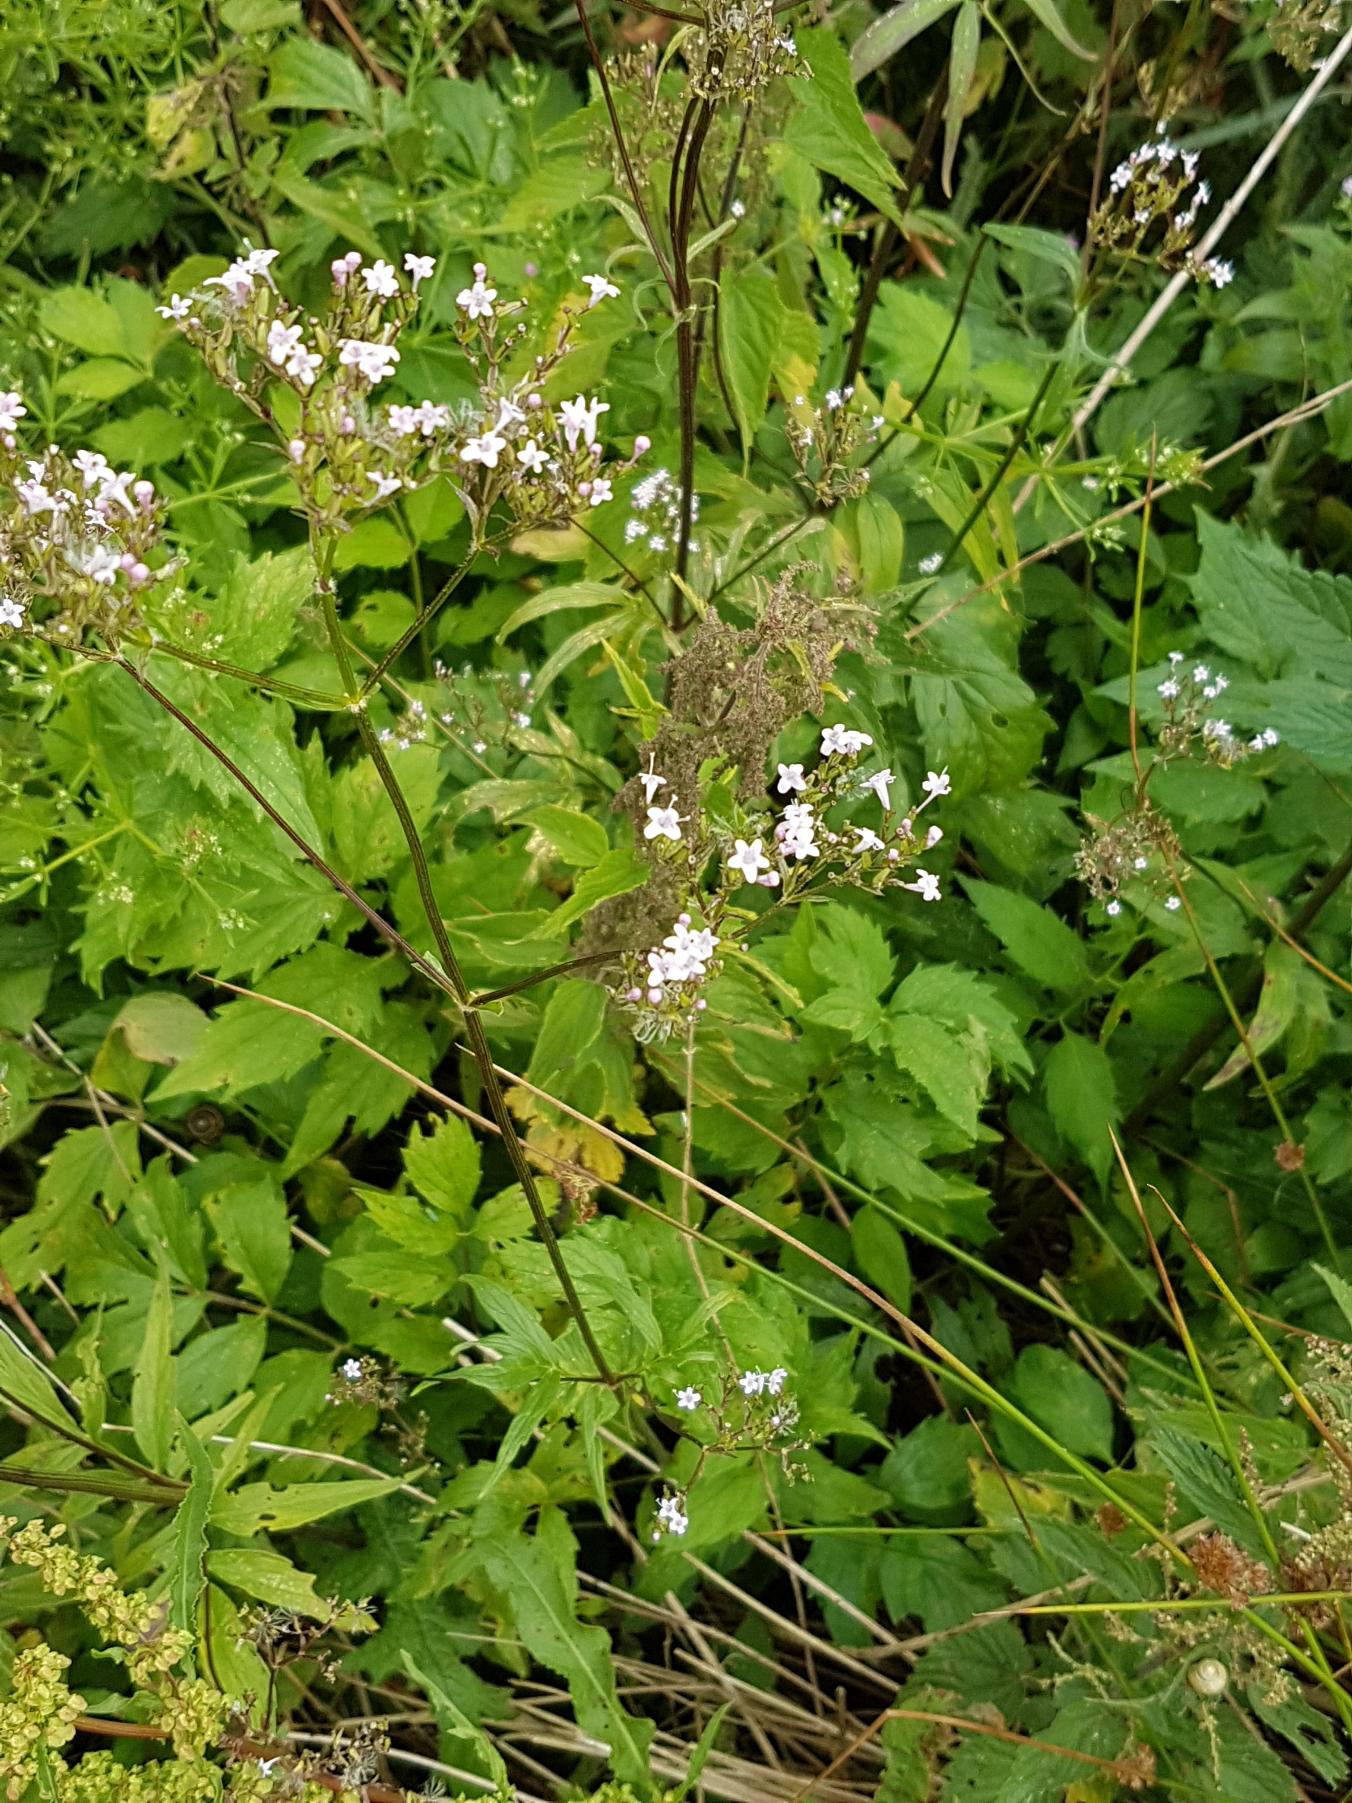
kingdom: Plantae
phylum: Tracheophyta
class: Magnoliopsida
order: Dipsacales
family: Caprifoliaceae
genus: Valeriana
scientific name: Valeriana sambucifolia
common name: Hyldebladet baldrian
